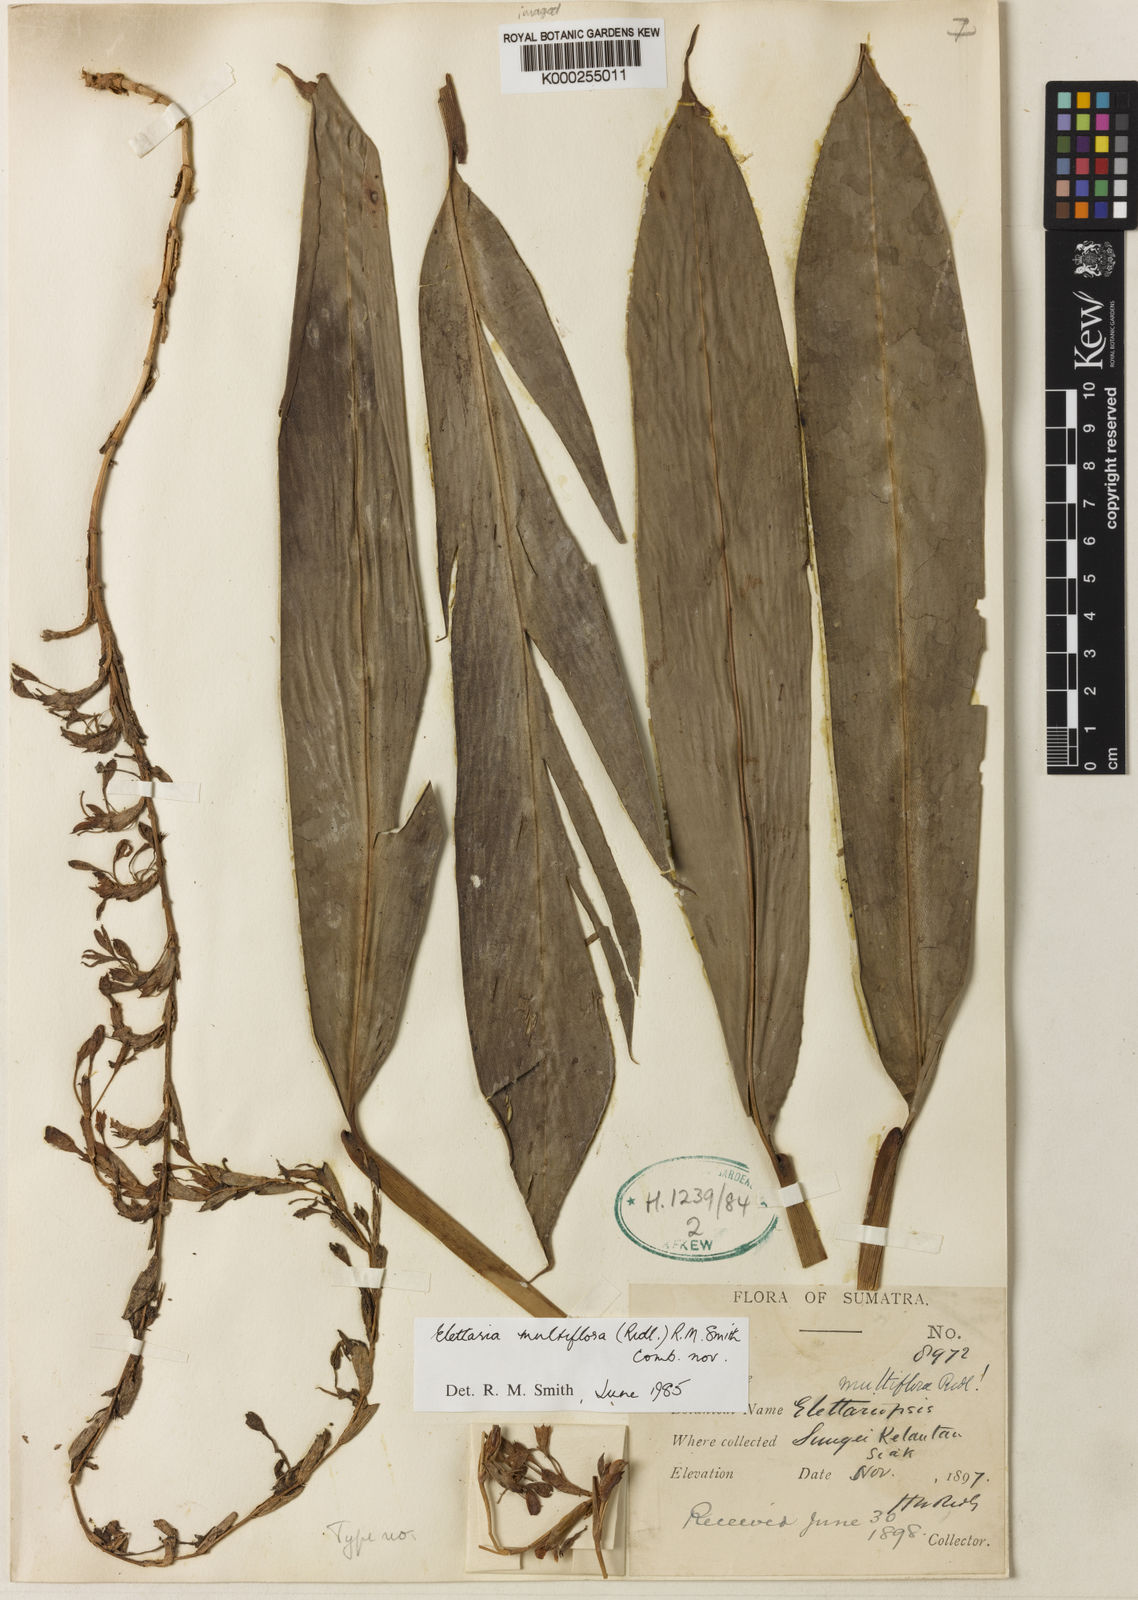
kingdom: Plantae
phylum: Tracheophyta
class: Liliopsida
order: Zingiberales
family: Zingiberaceae
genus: Sulettaria
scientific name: Sulettaria multiflora
